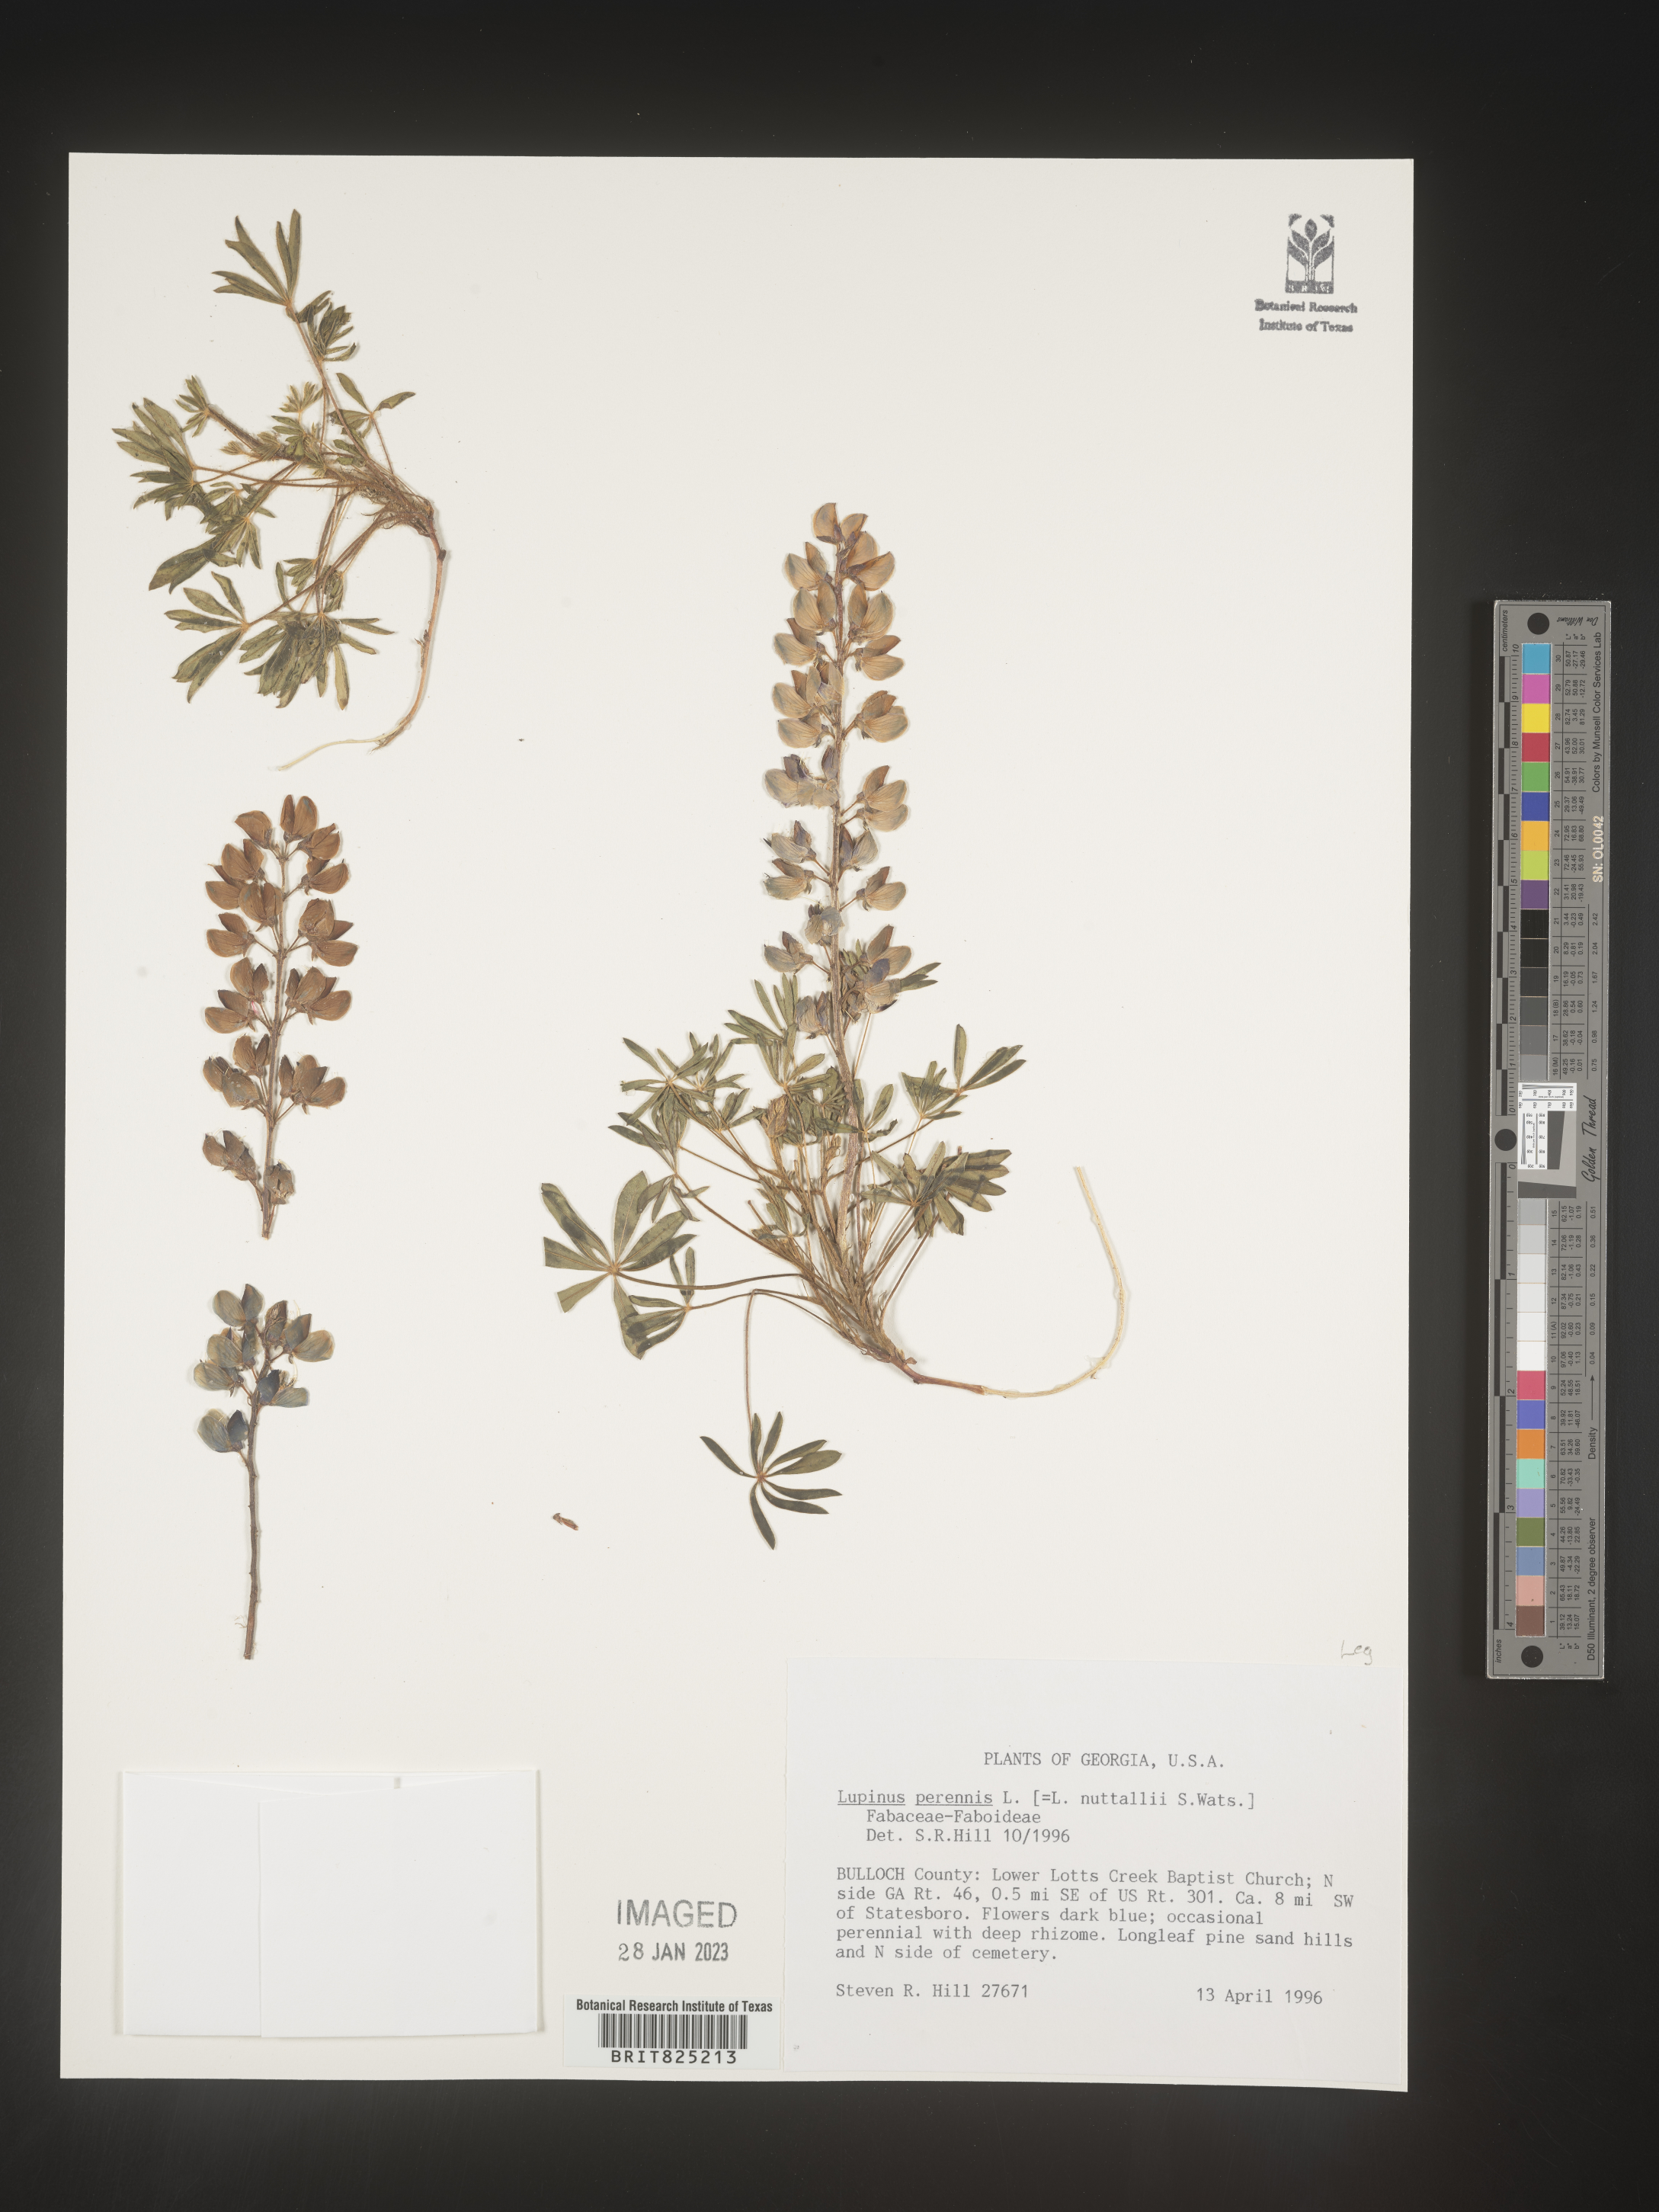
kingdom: Plantae
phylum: Tracheophyta
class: Magnoliopsida
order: Fabales
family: Fabaceae
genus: Lupinus
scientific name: Lupinus perennis
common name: Sundial lupine
